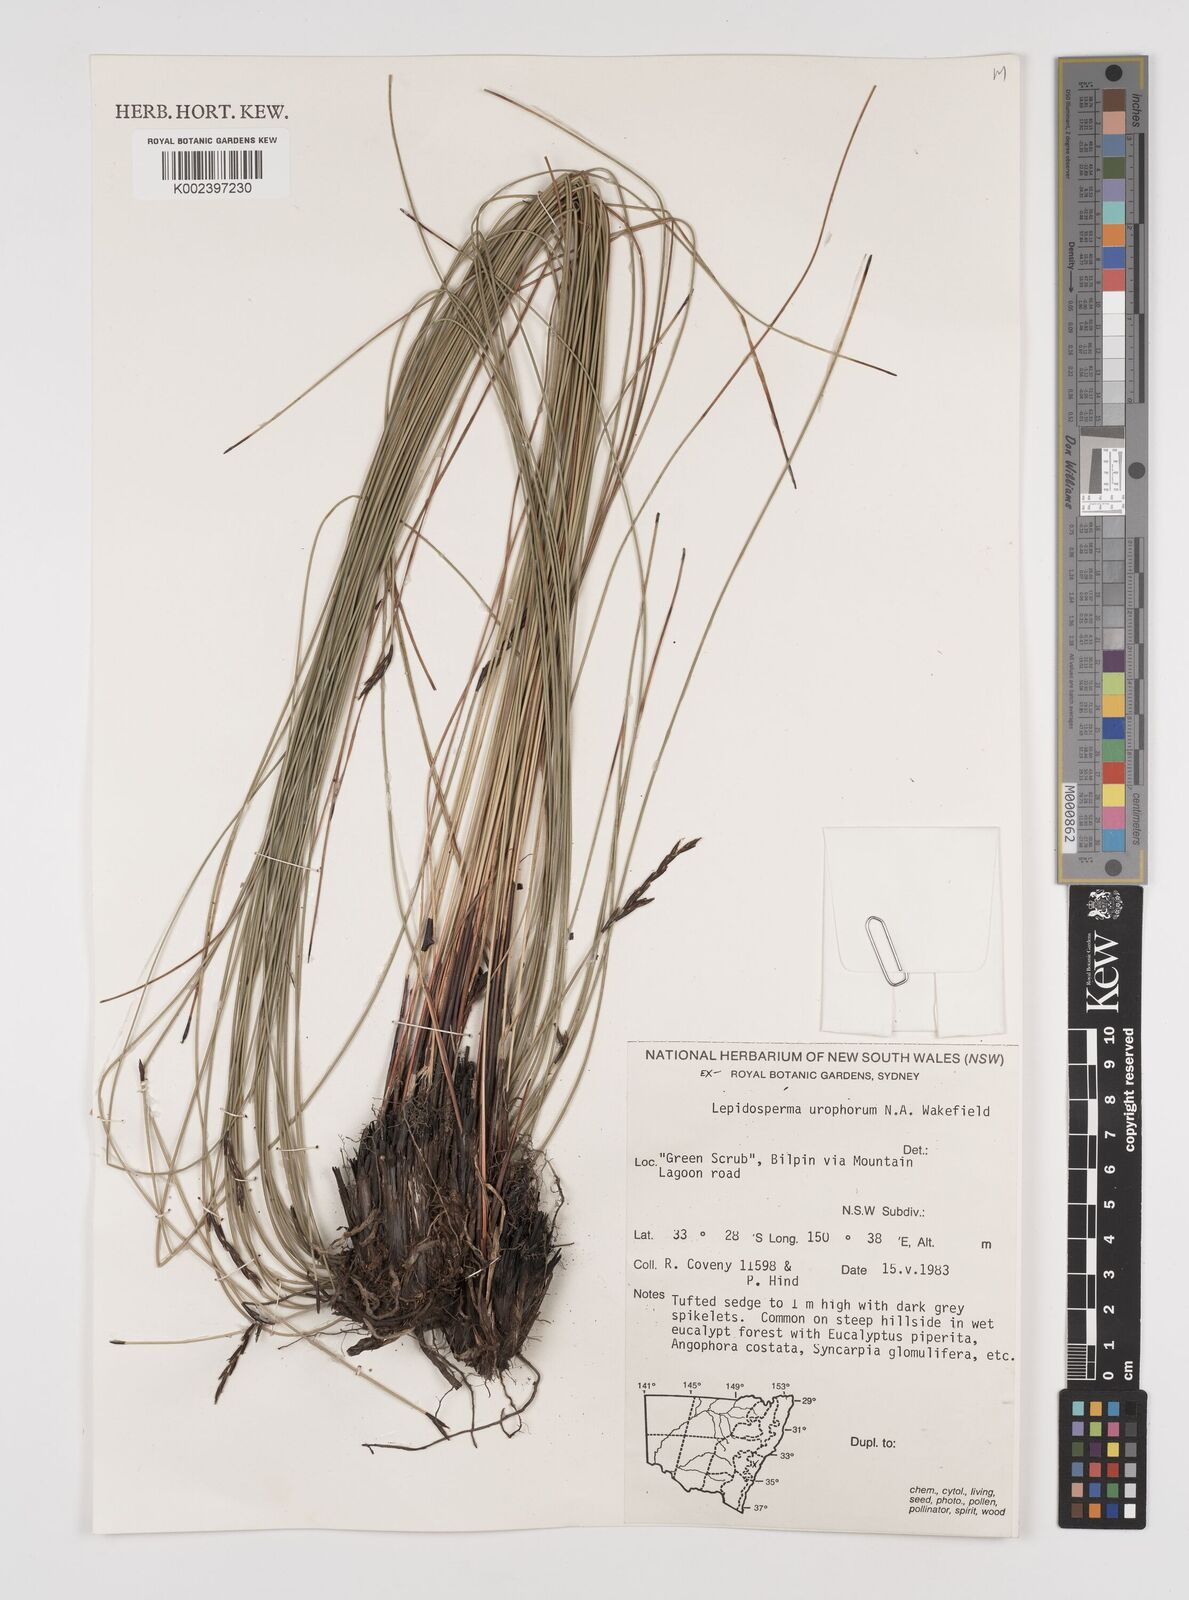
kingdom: Plantae
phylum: Tracheophyta
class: Liliopsida
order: Poales
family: Cyperaceae
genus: Lepidosperma
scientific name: Lepidosperma urophorum
